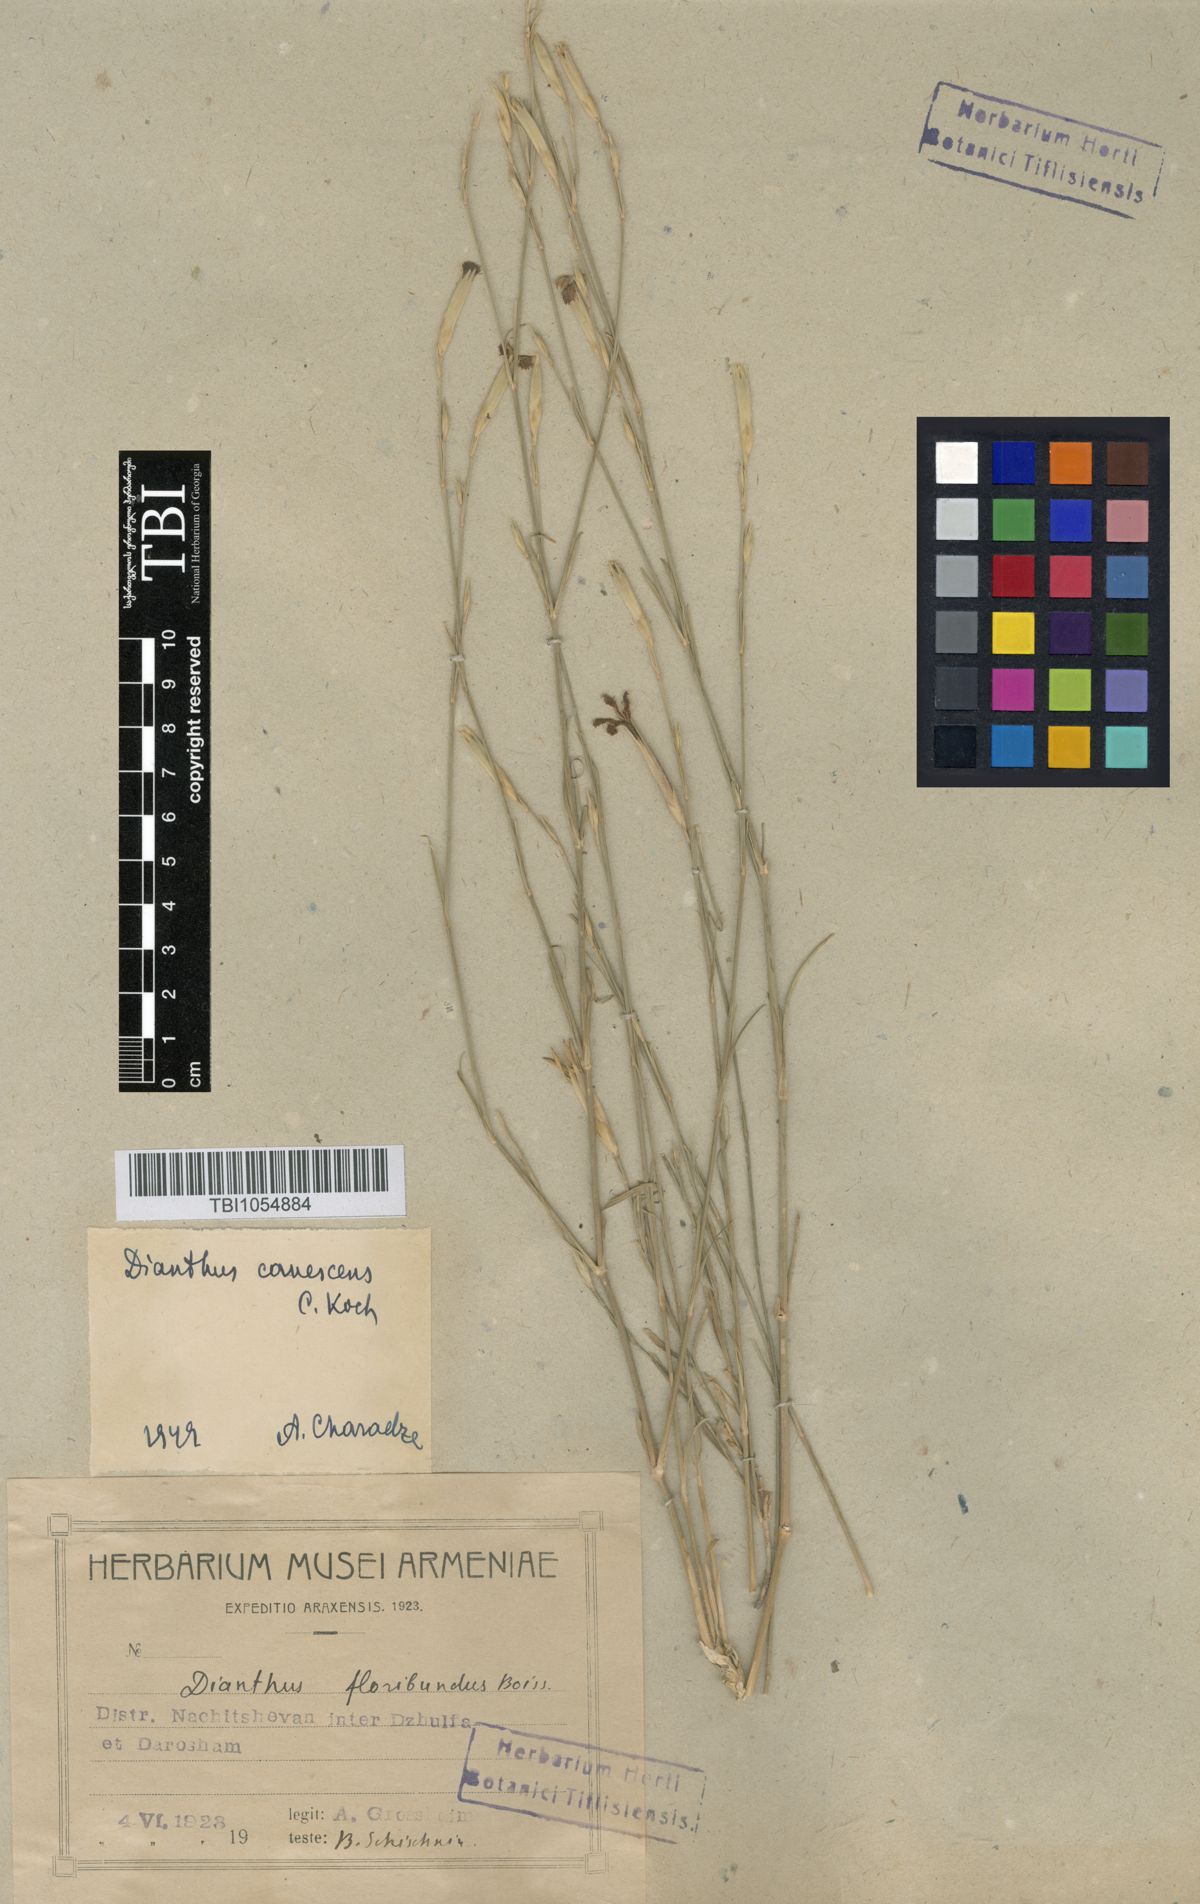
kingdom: Plantae
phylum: Tracheophyta
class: Magnoliopsida
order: Caryophyllales
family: Caryophyllaceae
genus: Dianthus
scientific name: Dianthus orientalis
